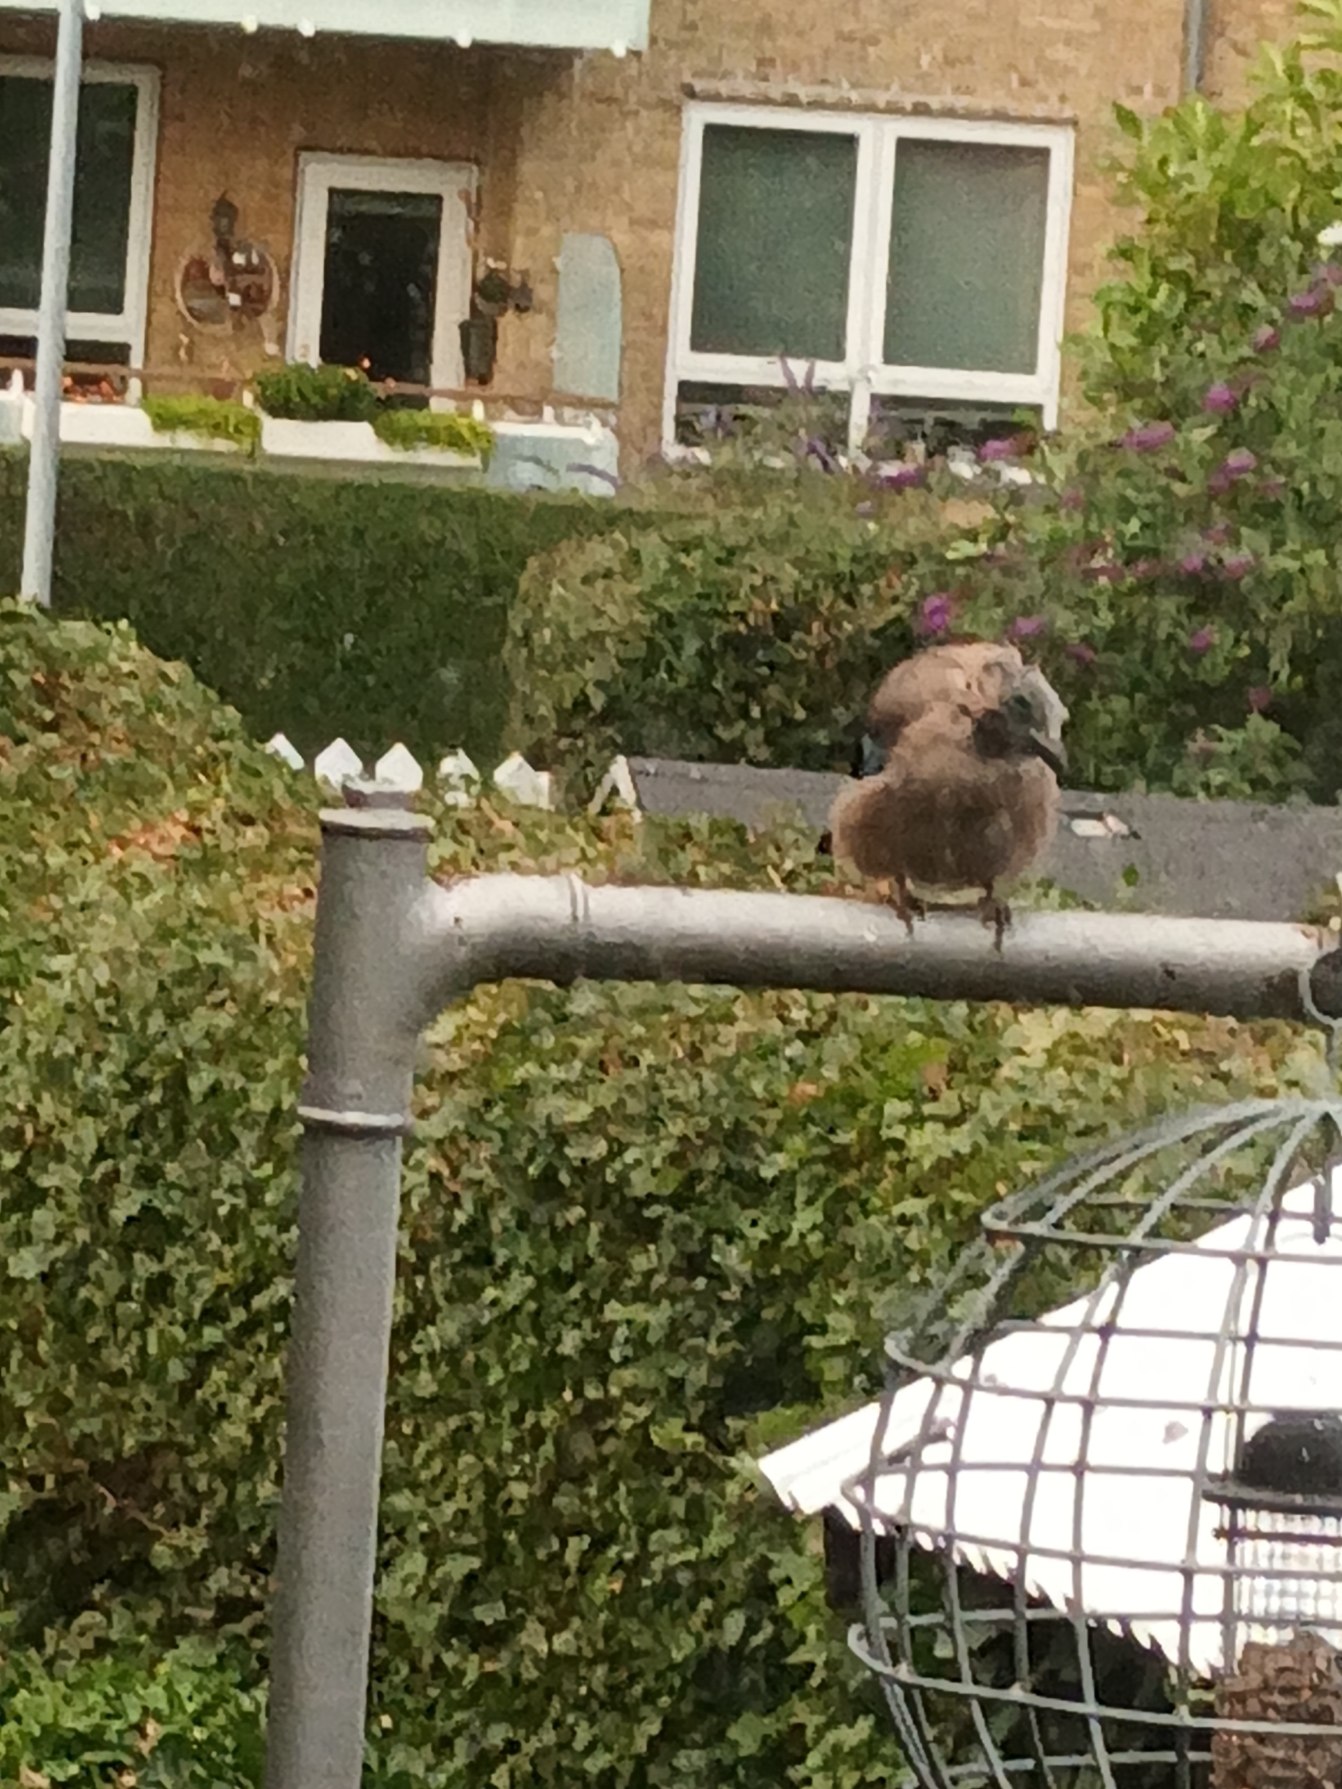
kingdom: Animalia
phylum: Chordata
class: Aves
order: Passeriformes
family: Corvidae
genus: Garrulus
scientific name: Garrulus glandarius
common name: Skovskade
